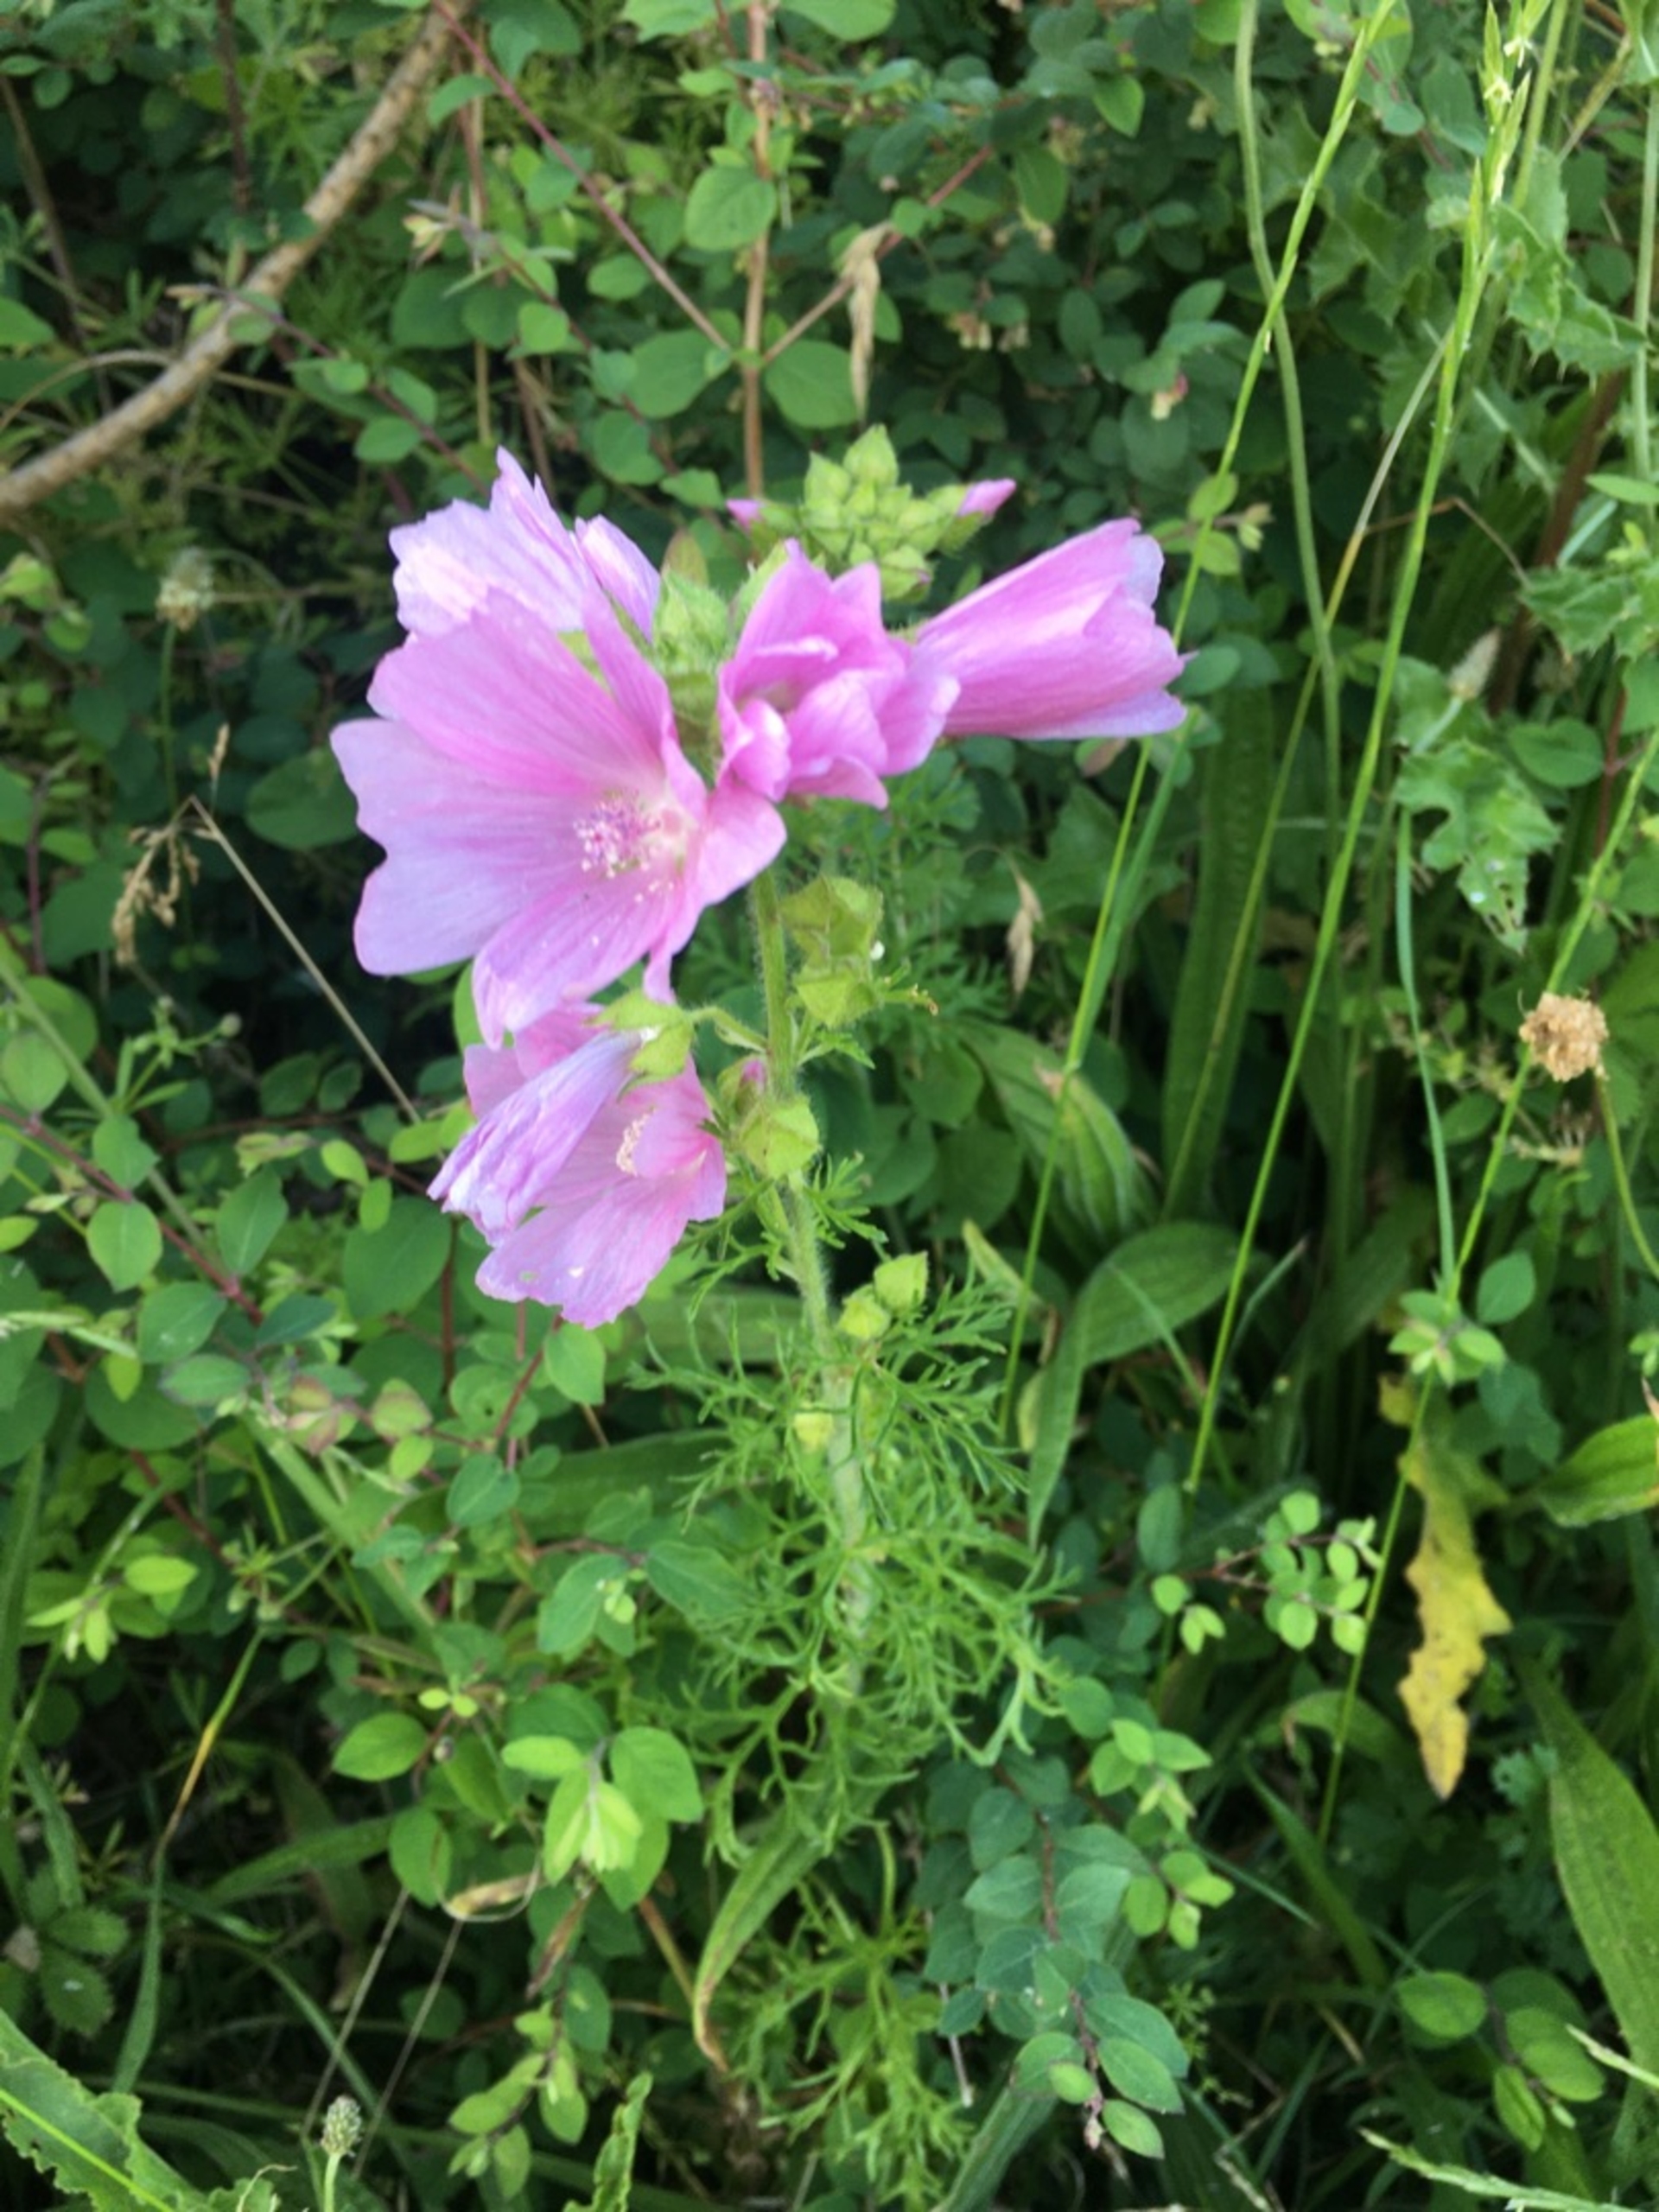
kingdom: Plantae
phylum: Tracheophyta
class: Magnoliopsida
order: Malvales
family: Malvaceae
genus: Malva
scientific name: Malva moschata
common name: Moskus-katost
